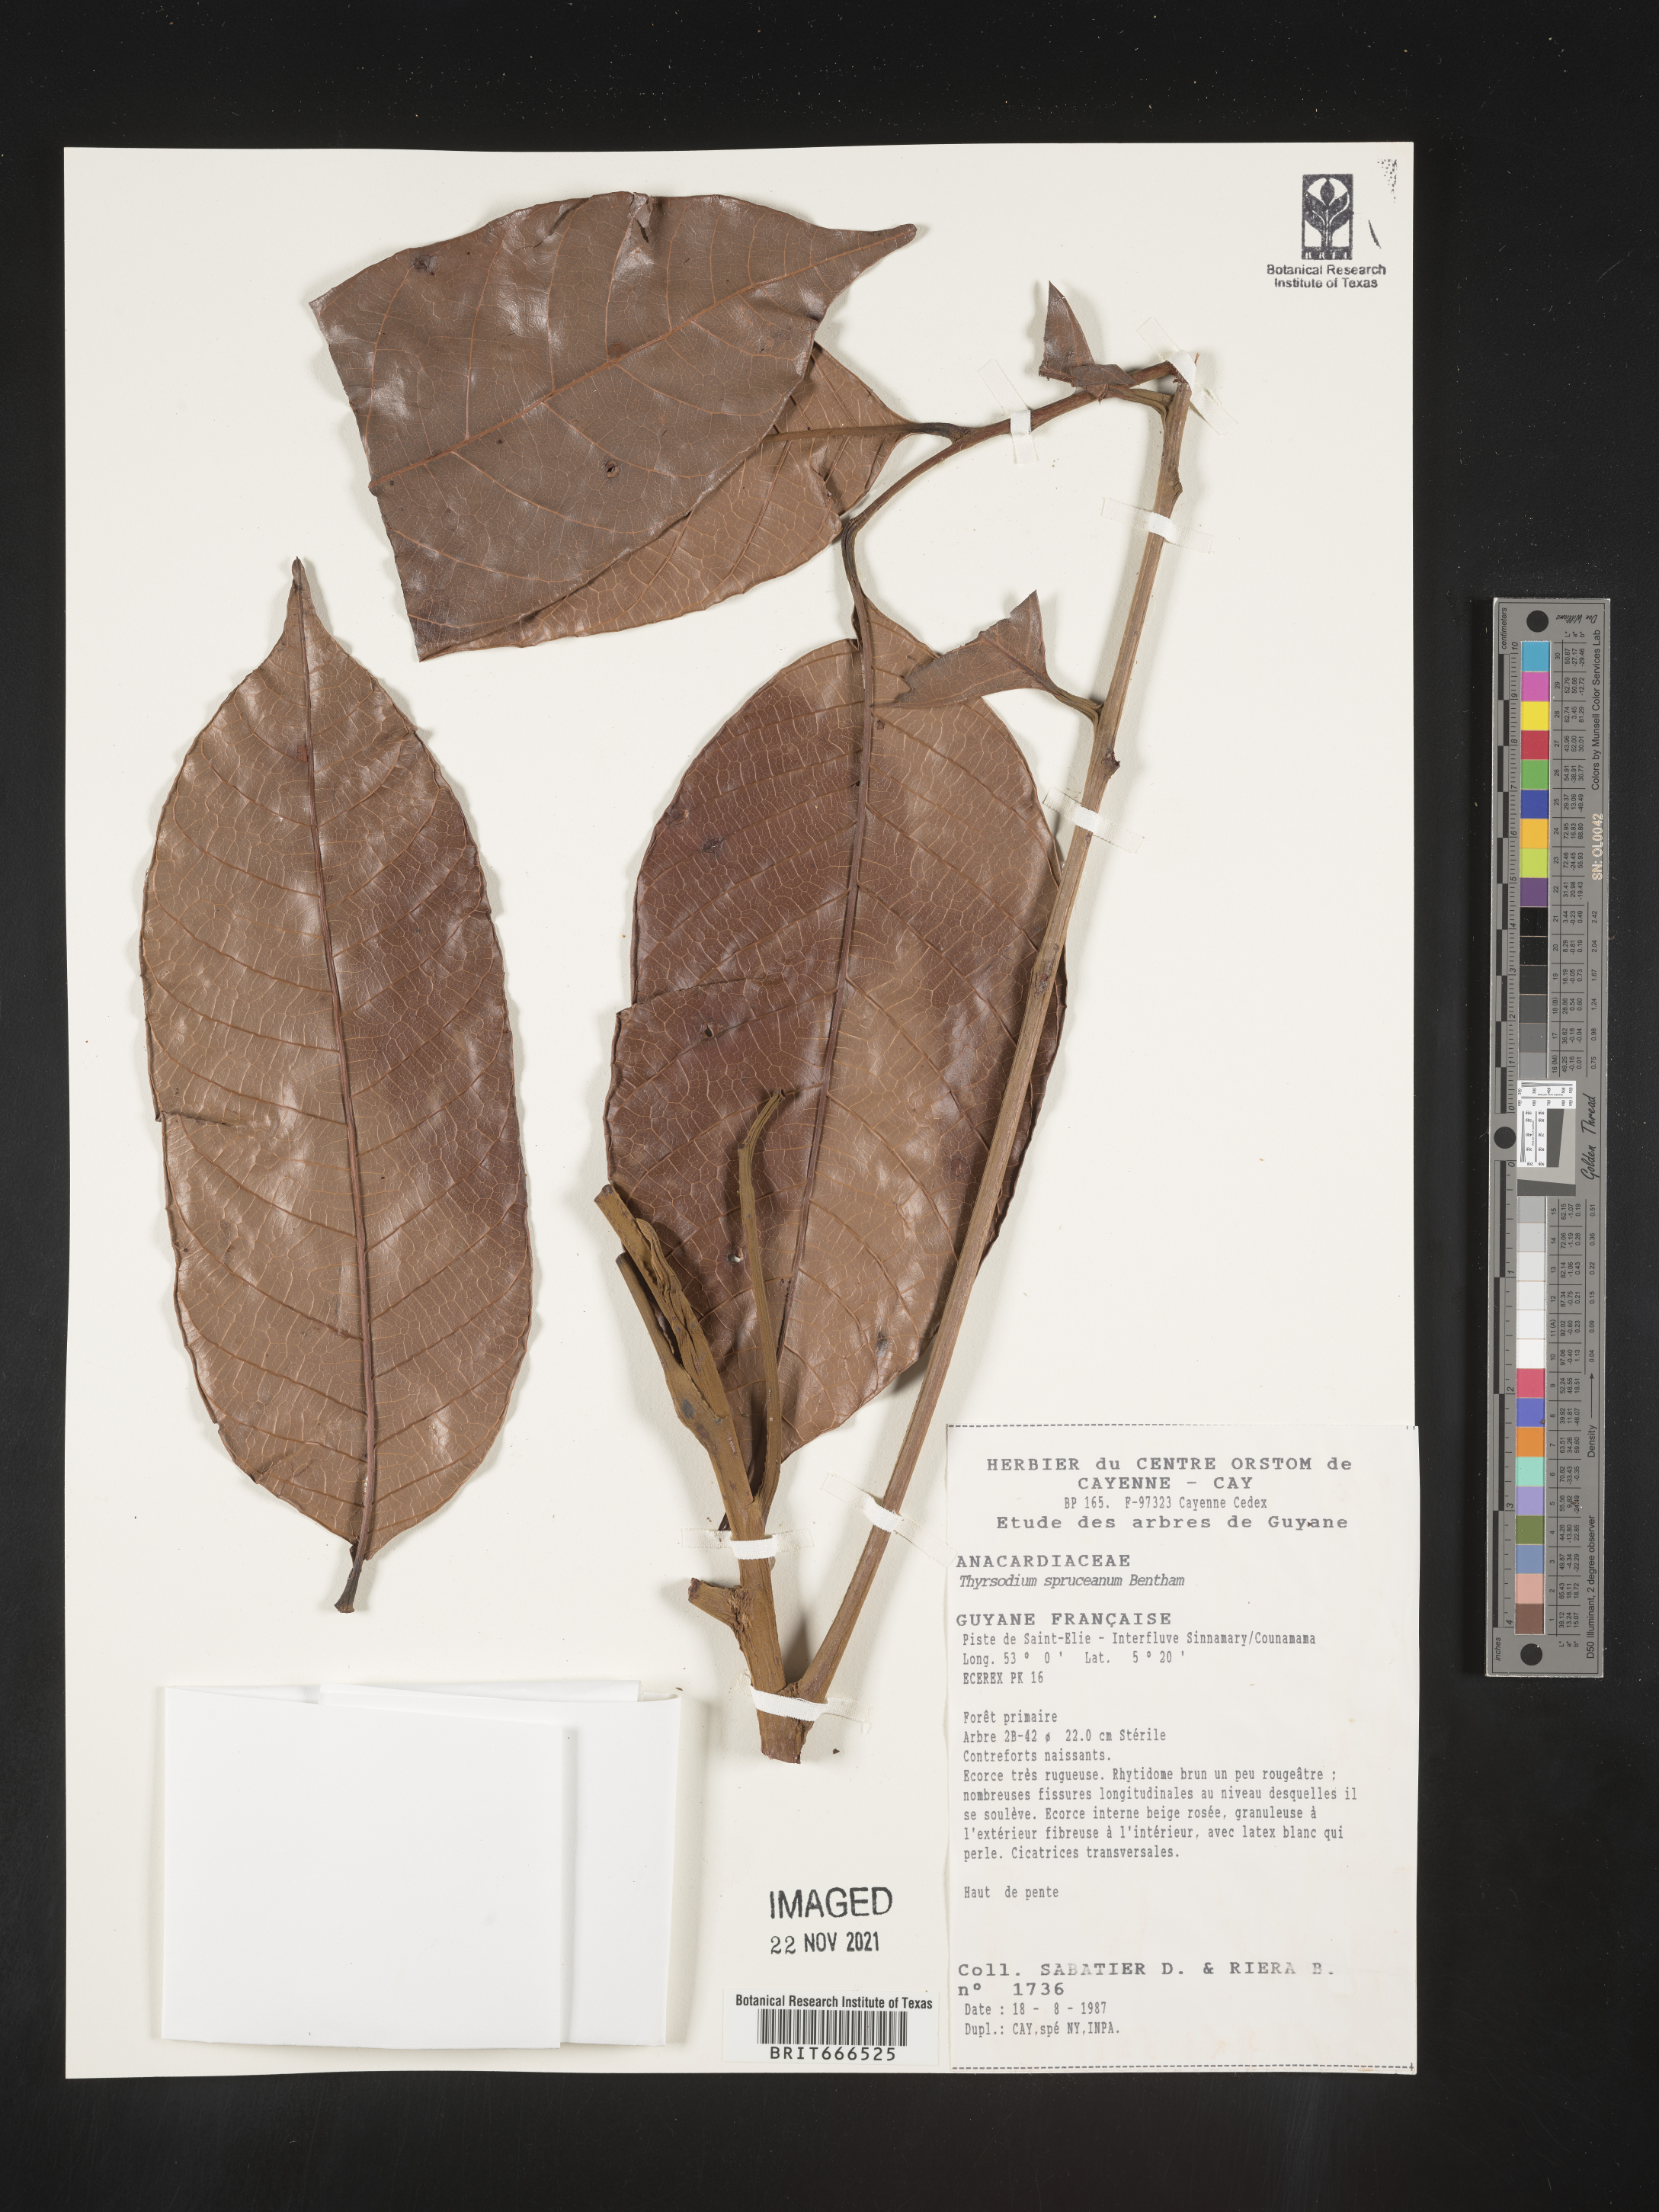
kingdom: Plantae
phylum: Tracheophyta
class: Magnoliopsida
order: Sapindales
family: Anacardiaceae
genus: Thyrsodium
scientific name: Thyrsodium
